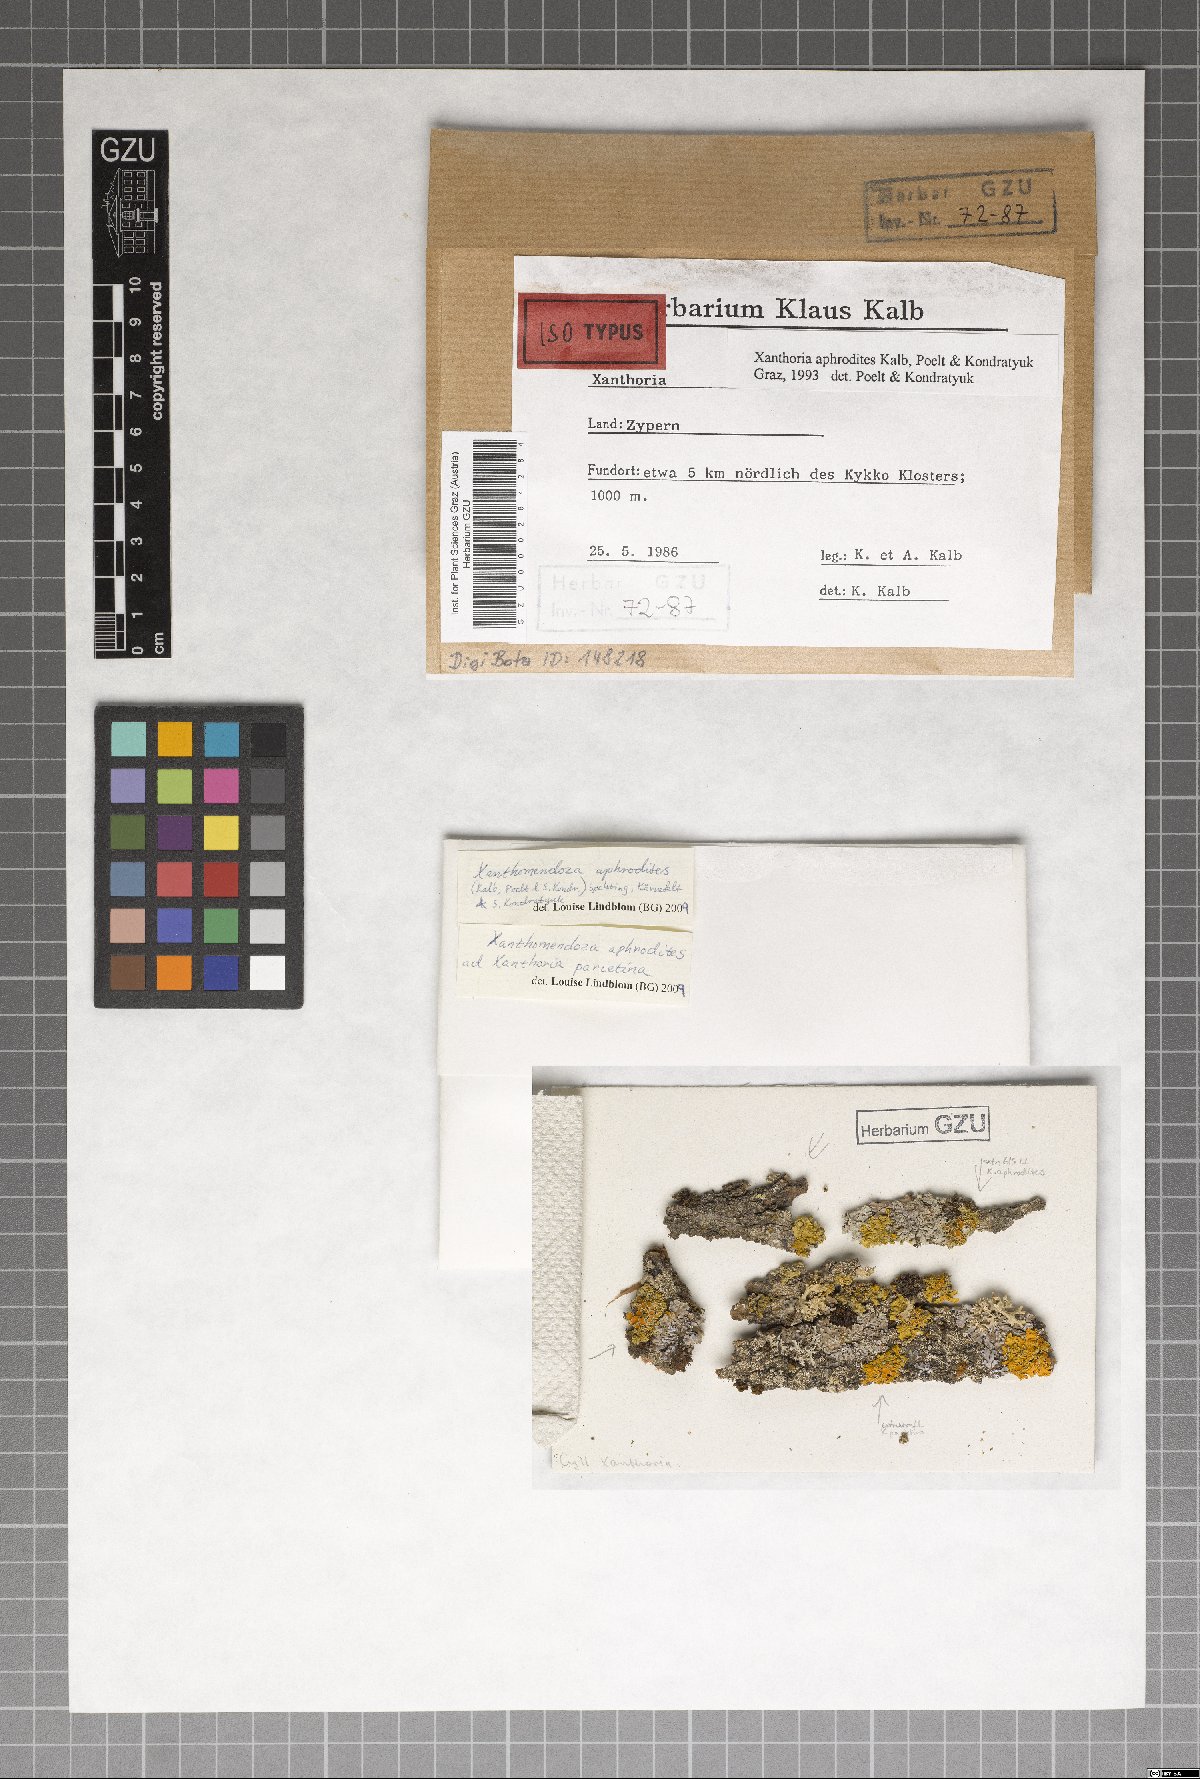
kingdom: Fungi
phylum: Ascomycota
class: Lecanoromycetes
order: Teloschistales
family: Teloschistaceae
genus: Gallowayella
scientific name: Gallowayella aphrodites
